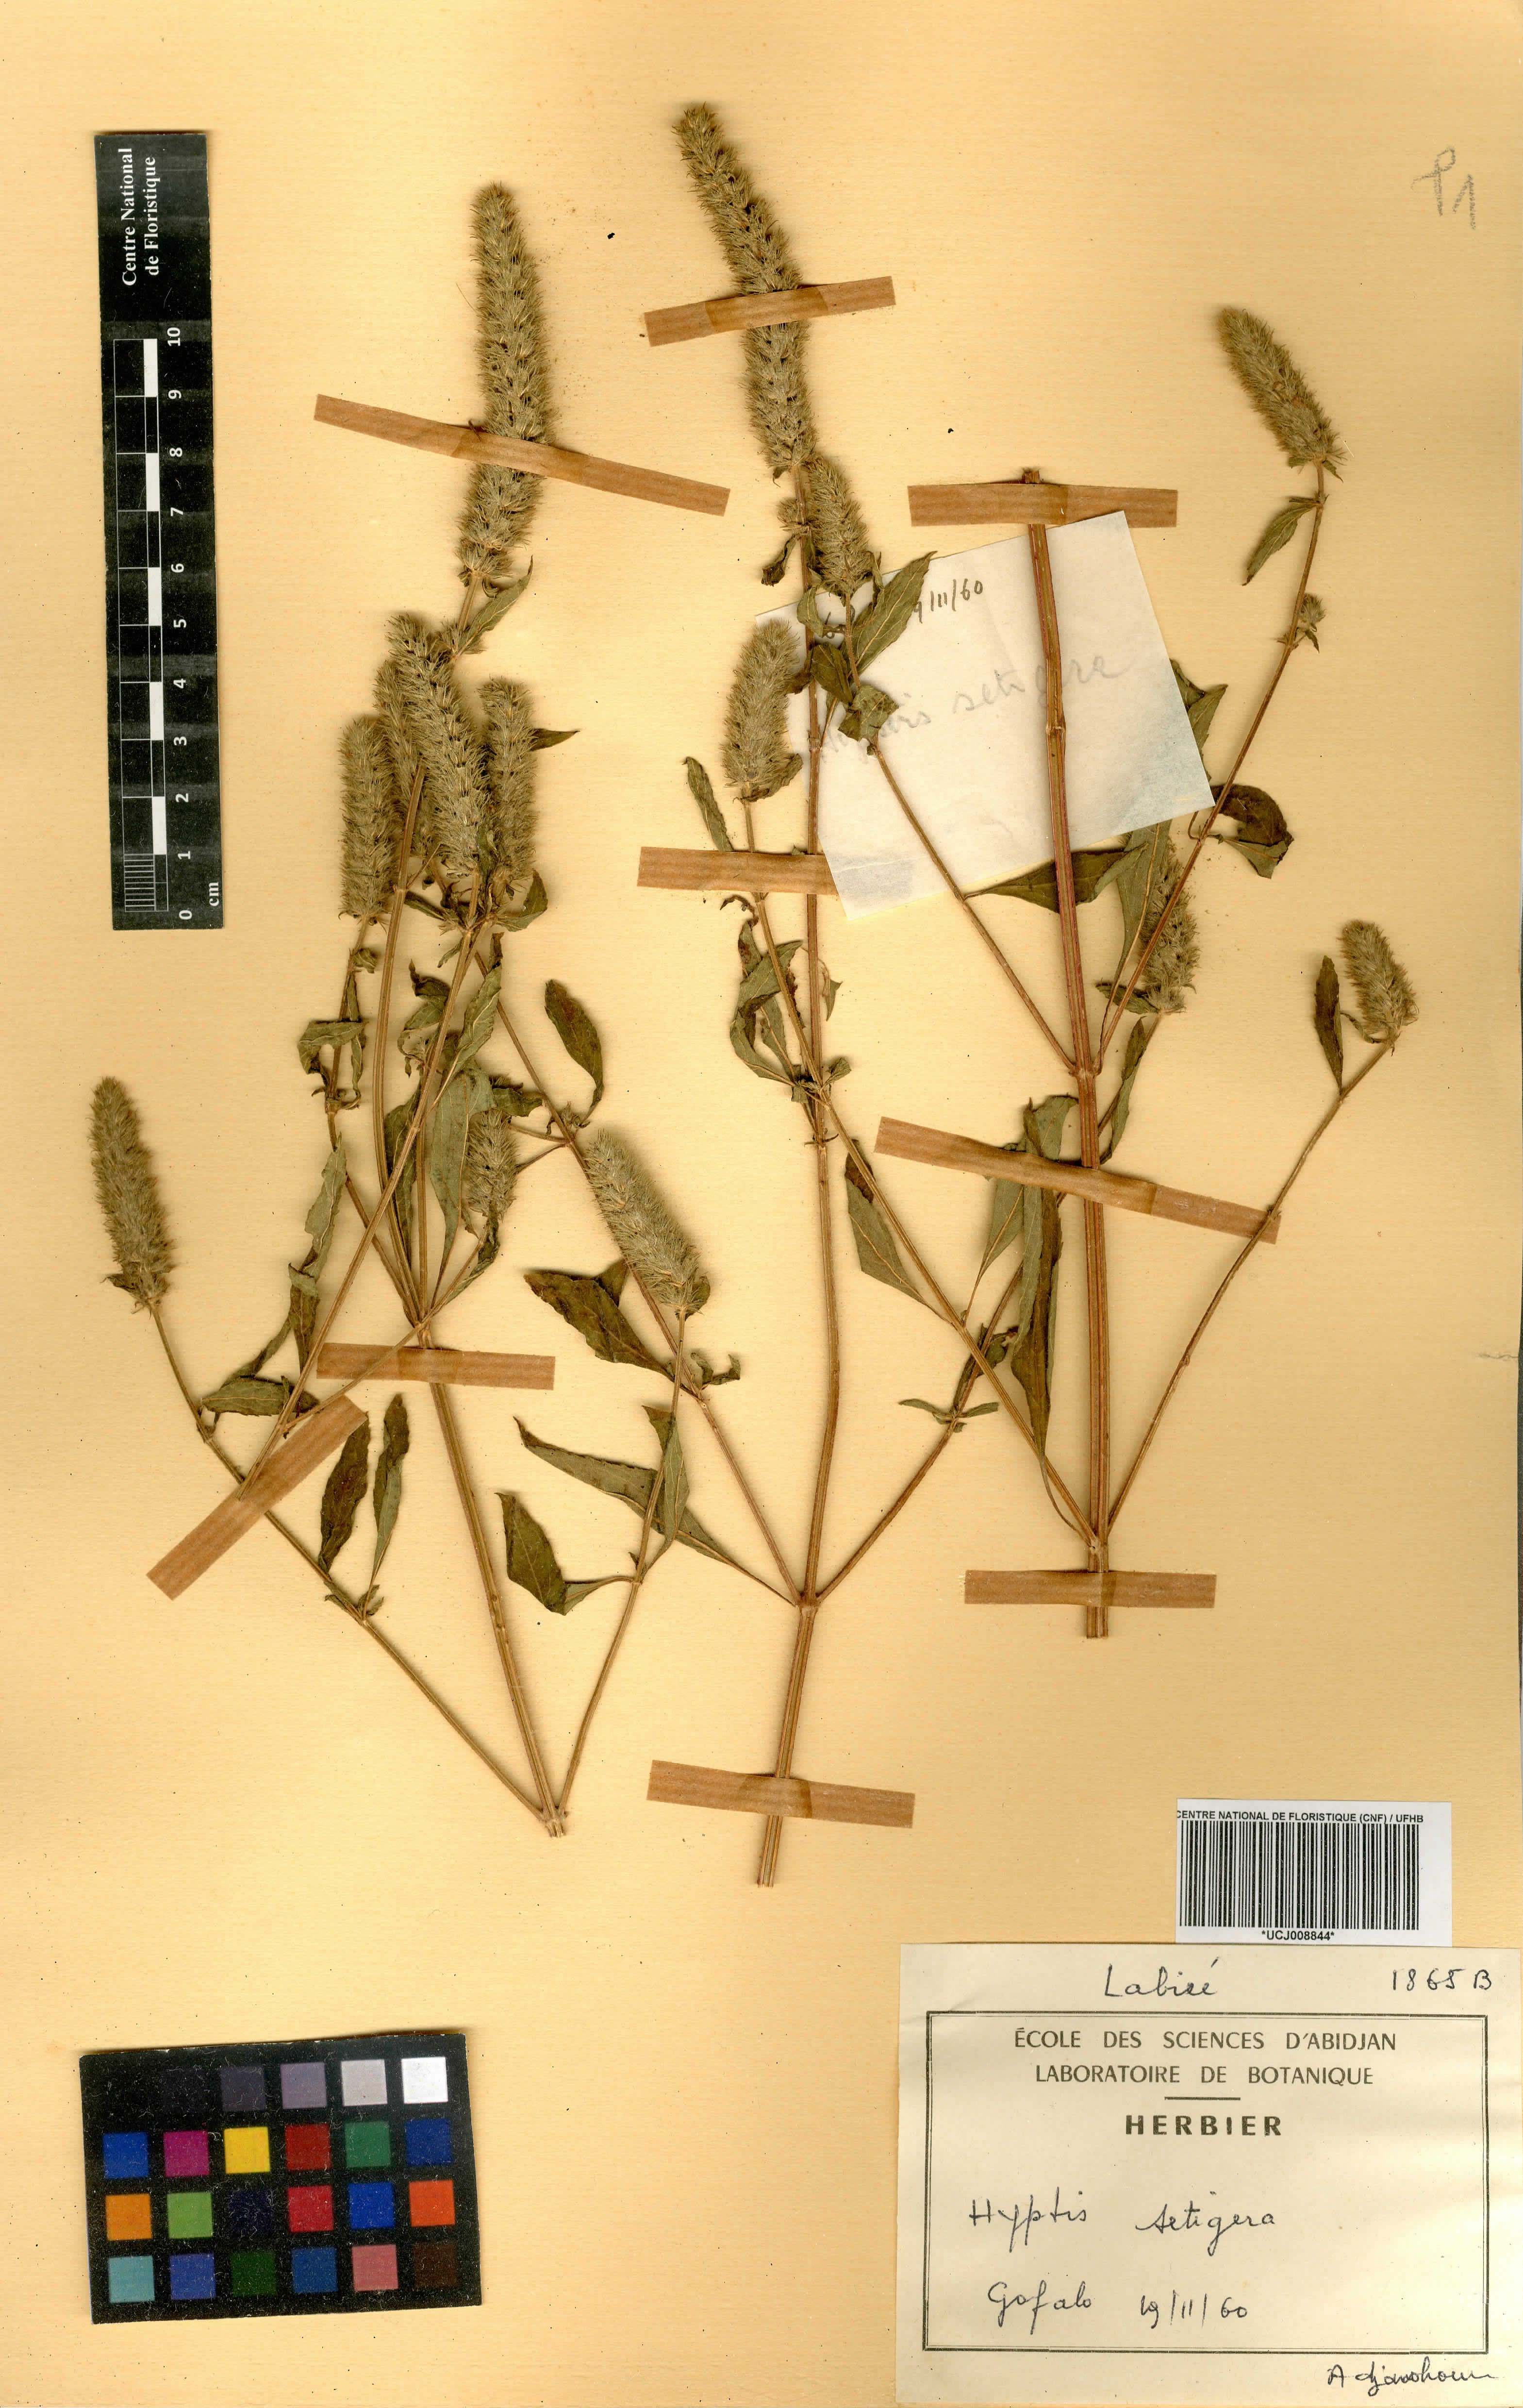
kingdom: Plantae
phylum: Tracheophyta
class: Magnoliopsida
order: Lamiales
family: Lamiaceae
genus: Cantinoa
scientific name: Cantinoa americana
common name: Black-sesame
